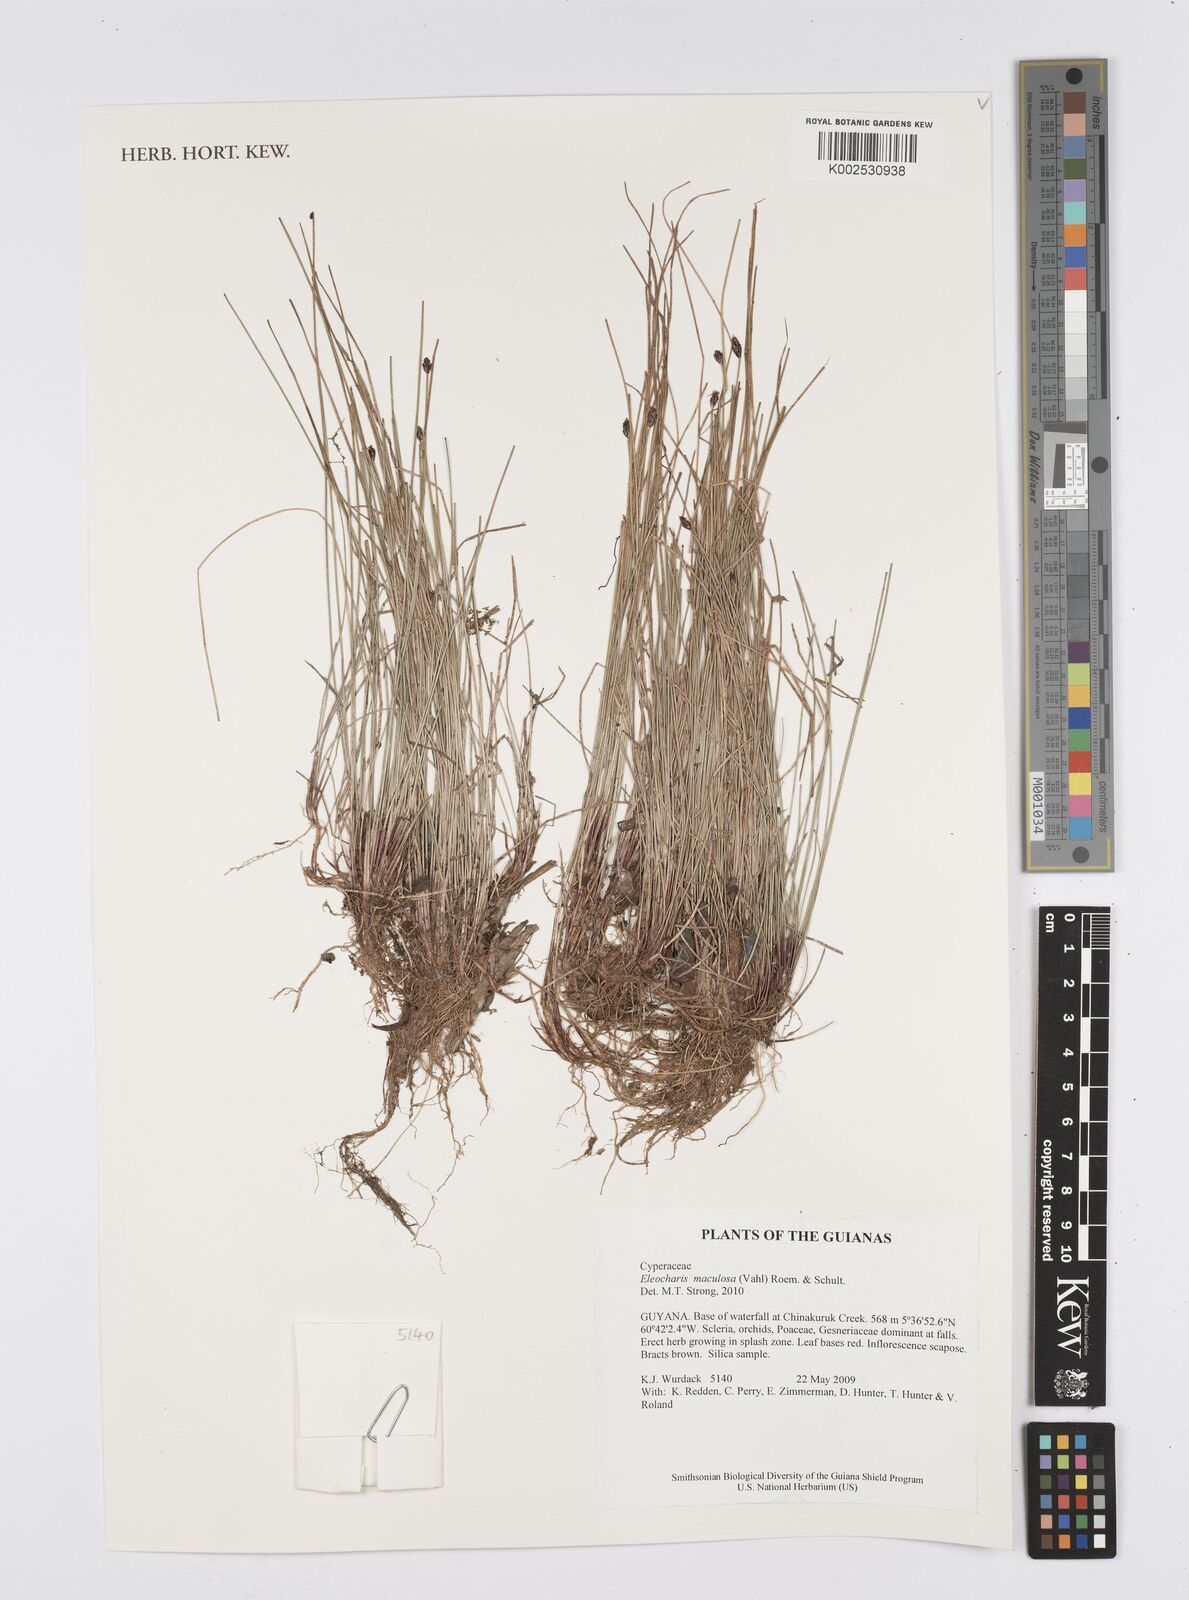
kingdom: Plantae
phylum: Tracheophyta
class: Liliopsida
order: Poales
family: Cyperaceae
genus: Eleocharis
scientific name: Eleocharis maculosa
